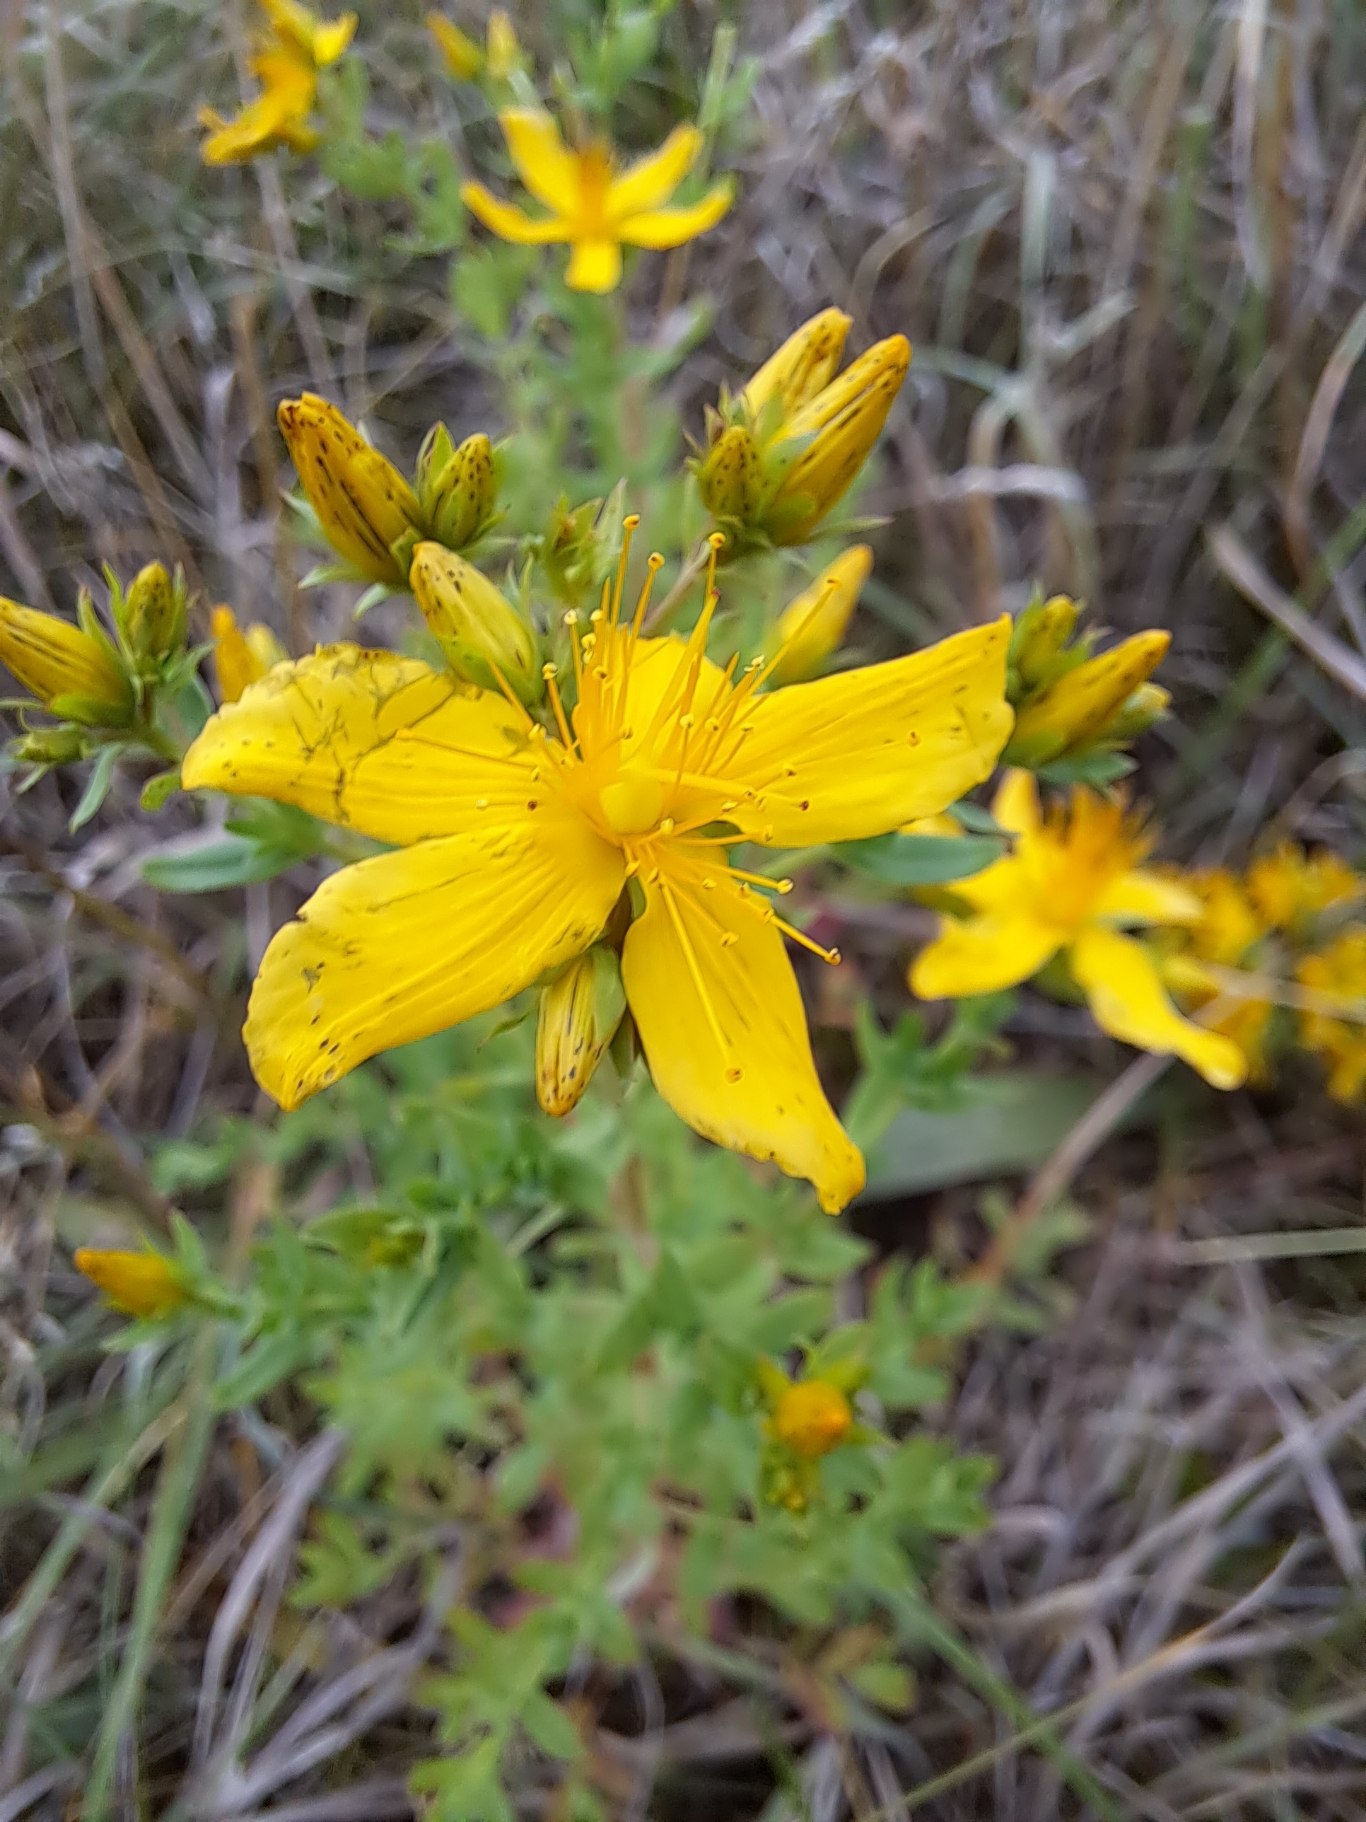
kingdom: Plantae
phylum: Tracheophyta
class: Magnoliopsida
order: Malpighiales
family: Hypericaceae
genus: Hypericum
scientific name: Hypericum perforatum
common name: Prikbladet perikon
